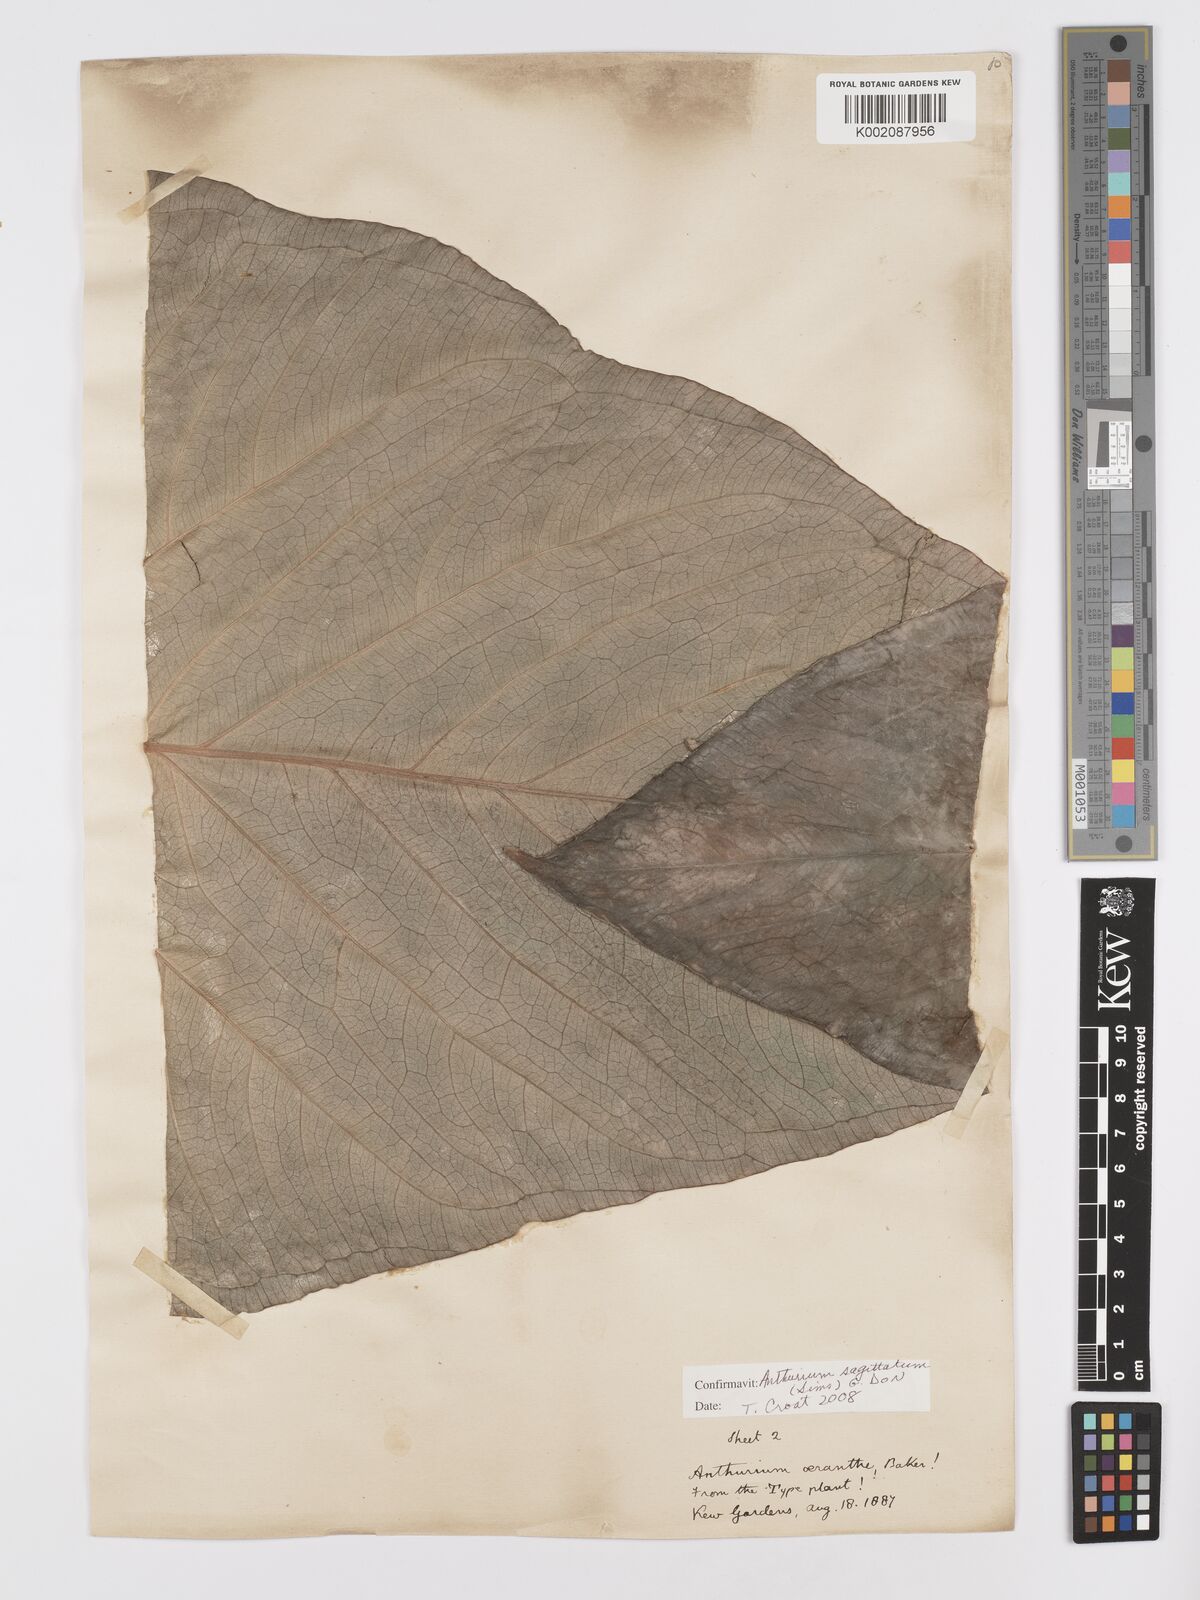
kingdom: Plantae
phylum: Tracheophyta
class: Liliopsida
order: Alismatales
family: Araceae
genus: Anthurium
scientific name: Anthurium sagittatum
